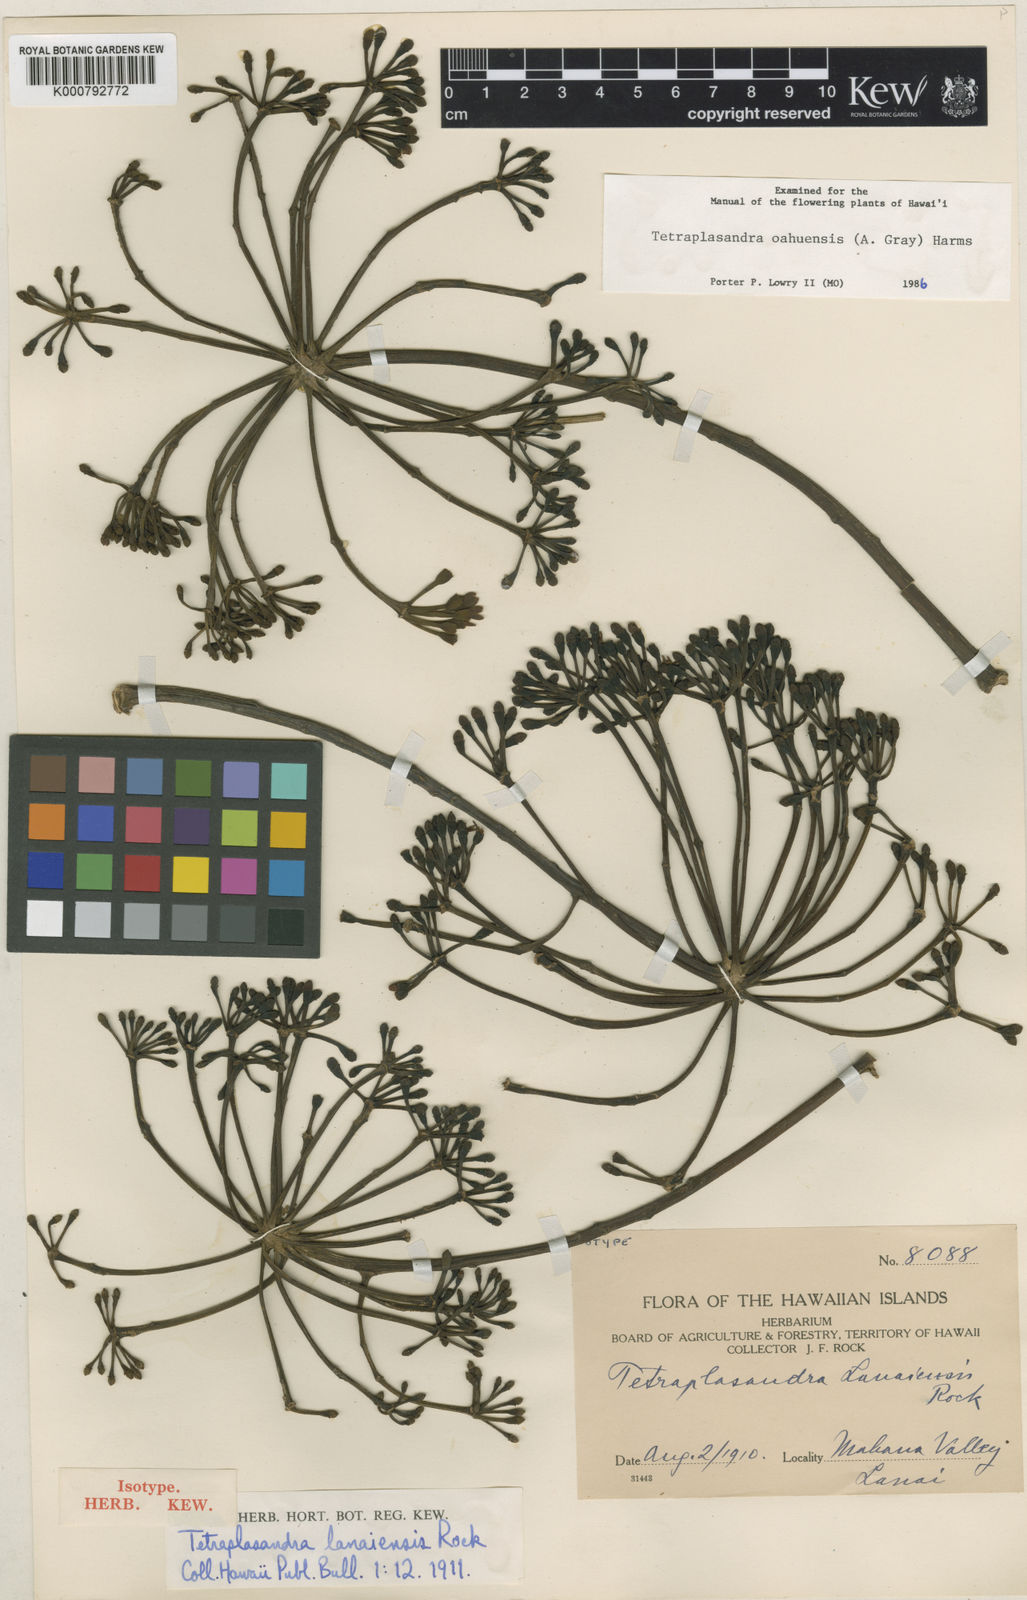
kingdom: Plantae
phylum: Tracheophyta
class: Magnoliopsida
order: Apiales
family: Araliaceae
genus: Polyscias
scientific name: Polyscias oahuensis
